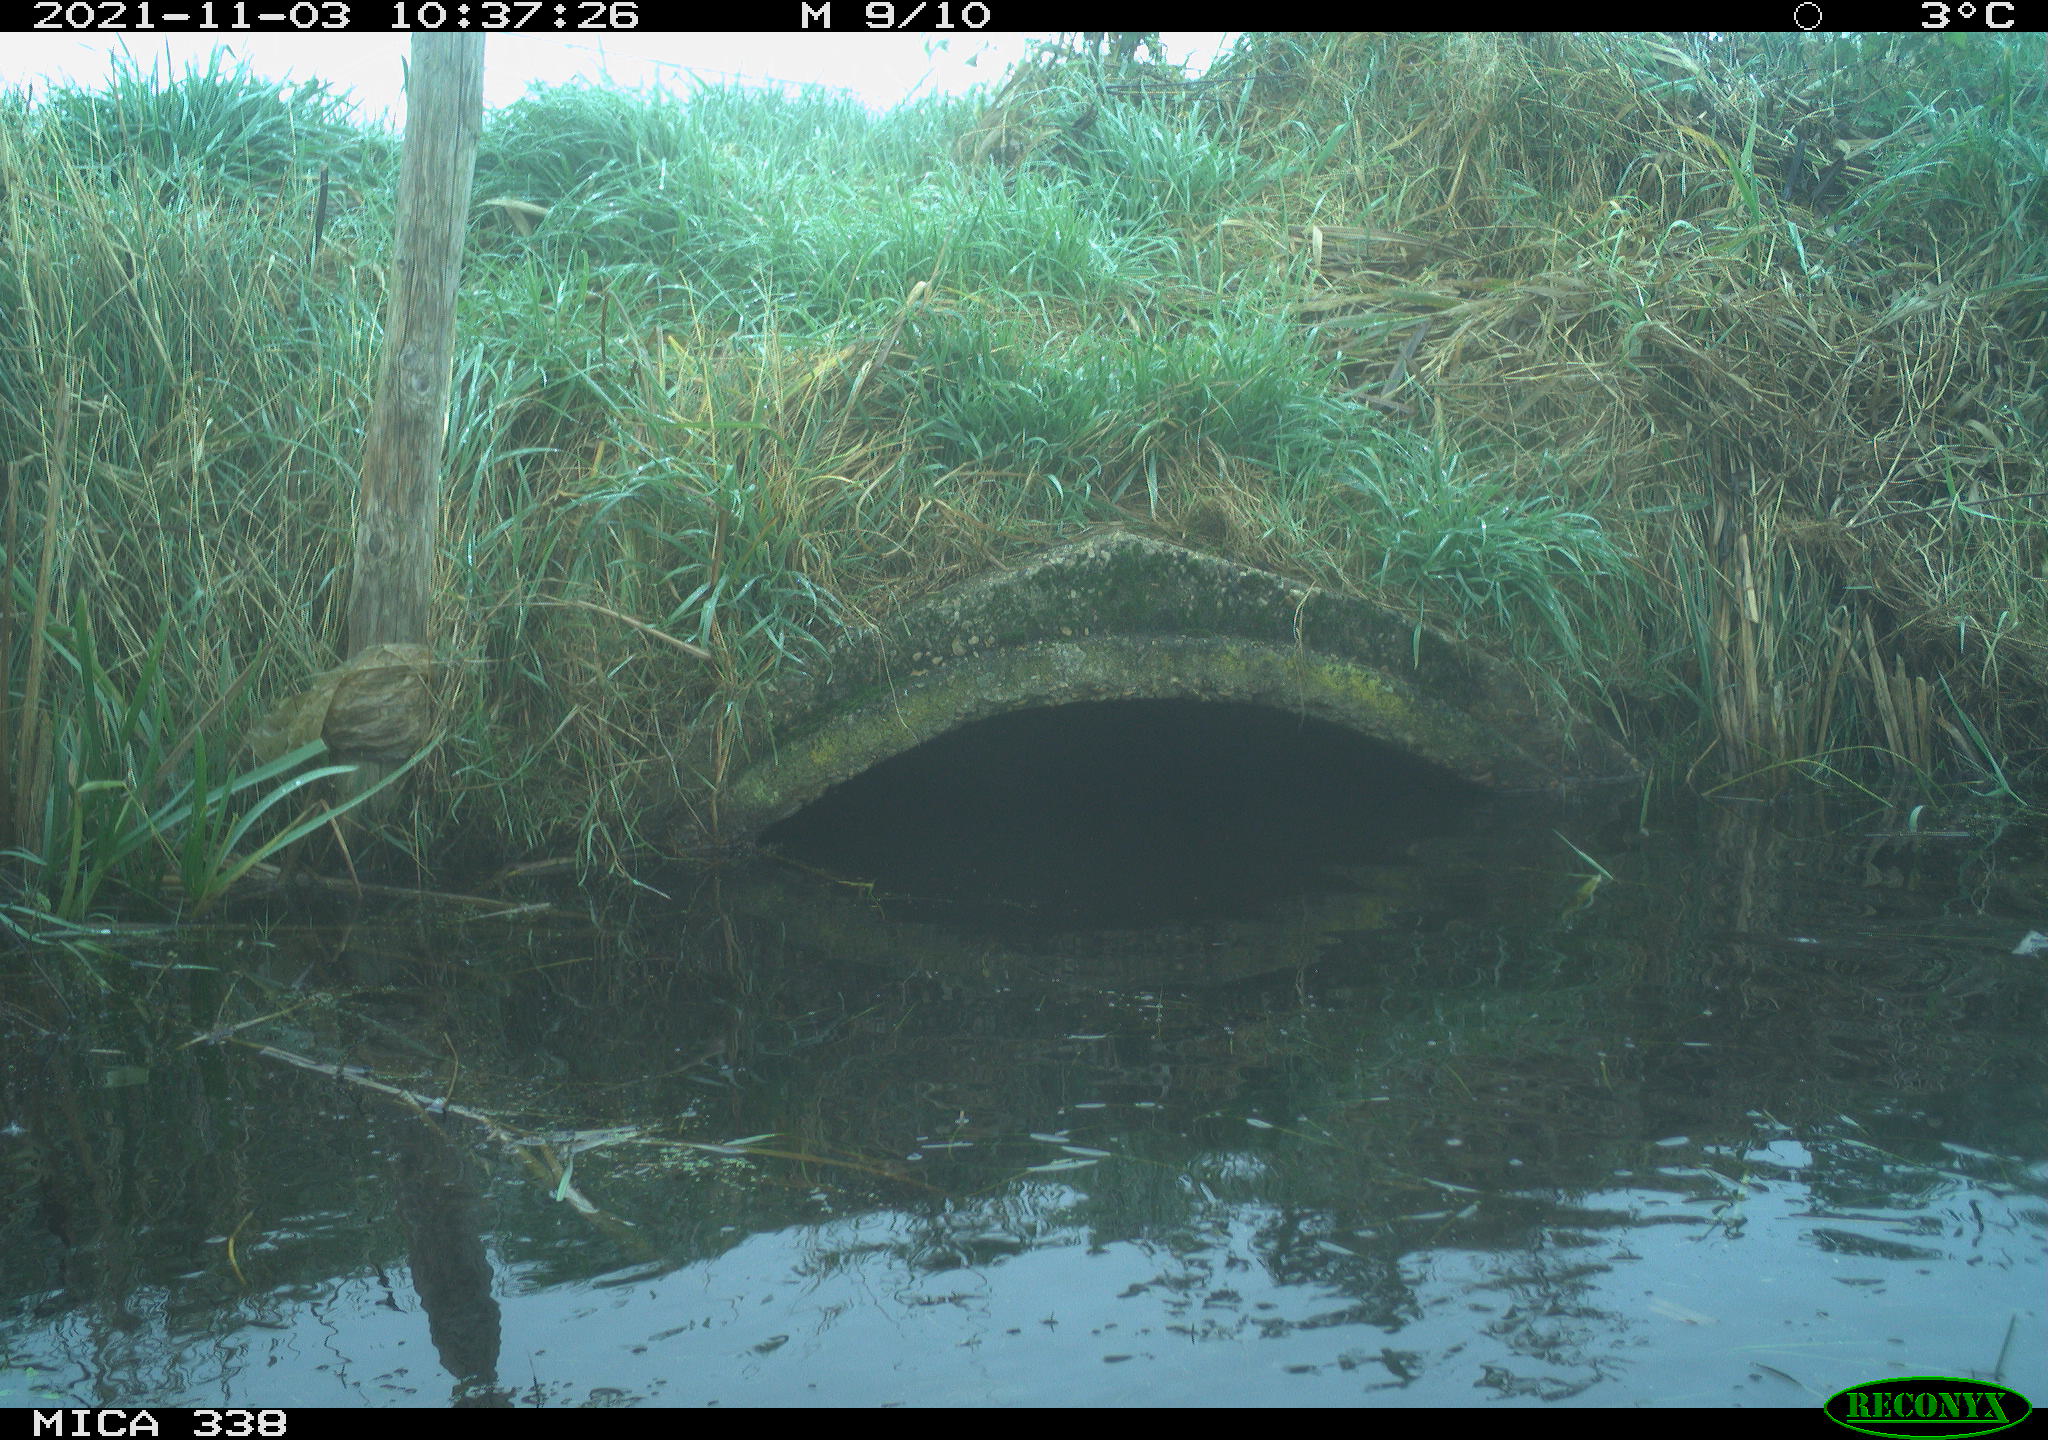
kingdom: Animalia
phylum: Chordata
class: Aves
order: Anseriformes
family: Anatidae
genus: Cygnus
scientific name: Cygnus olor
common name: Mute swan
